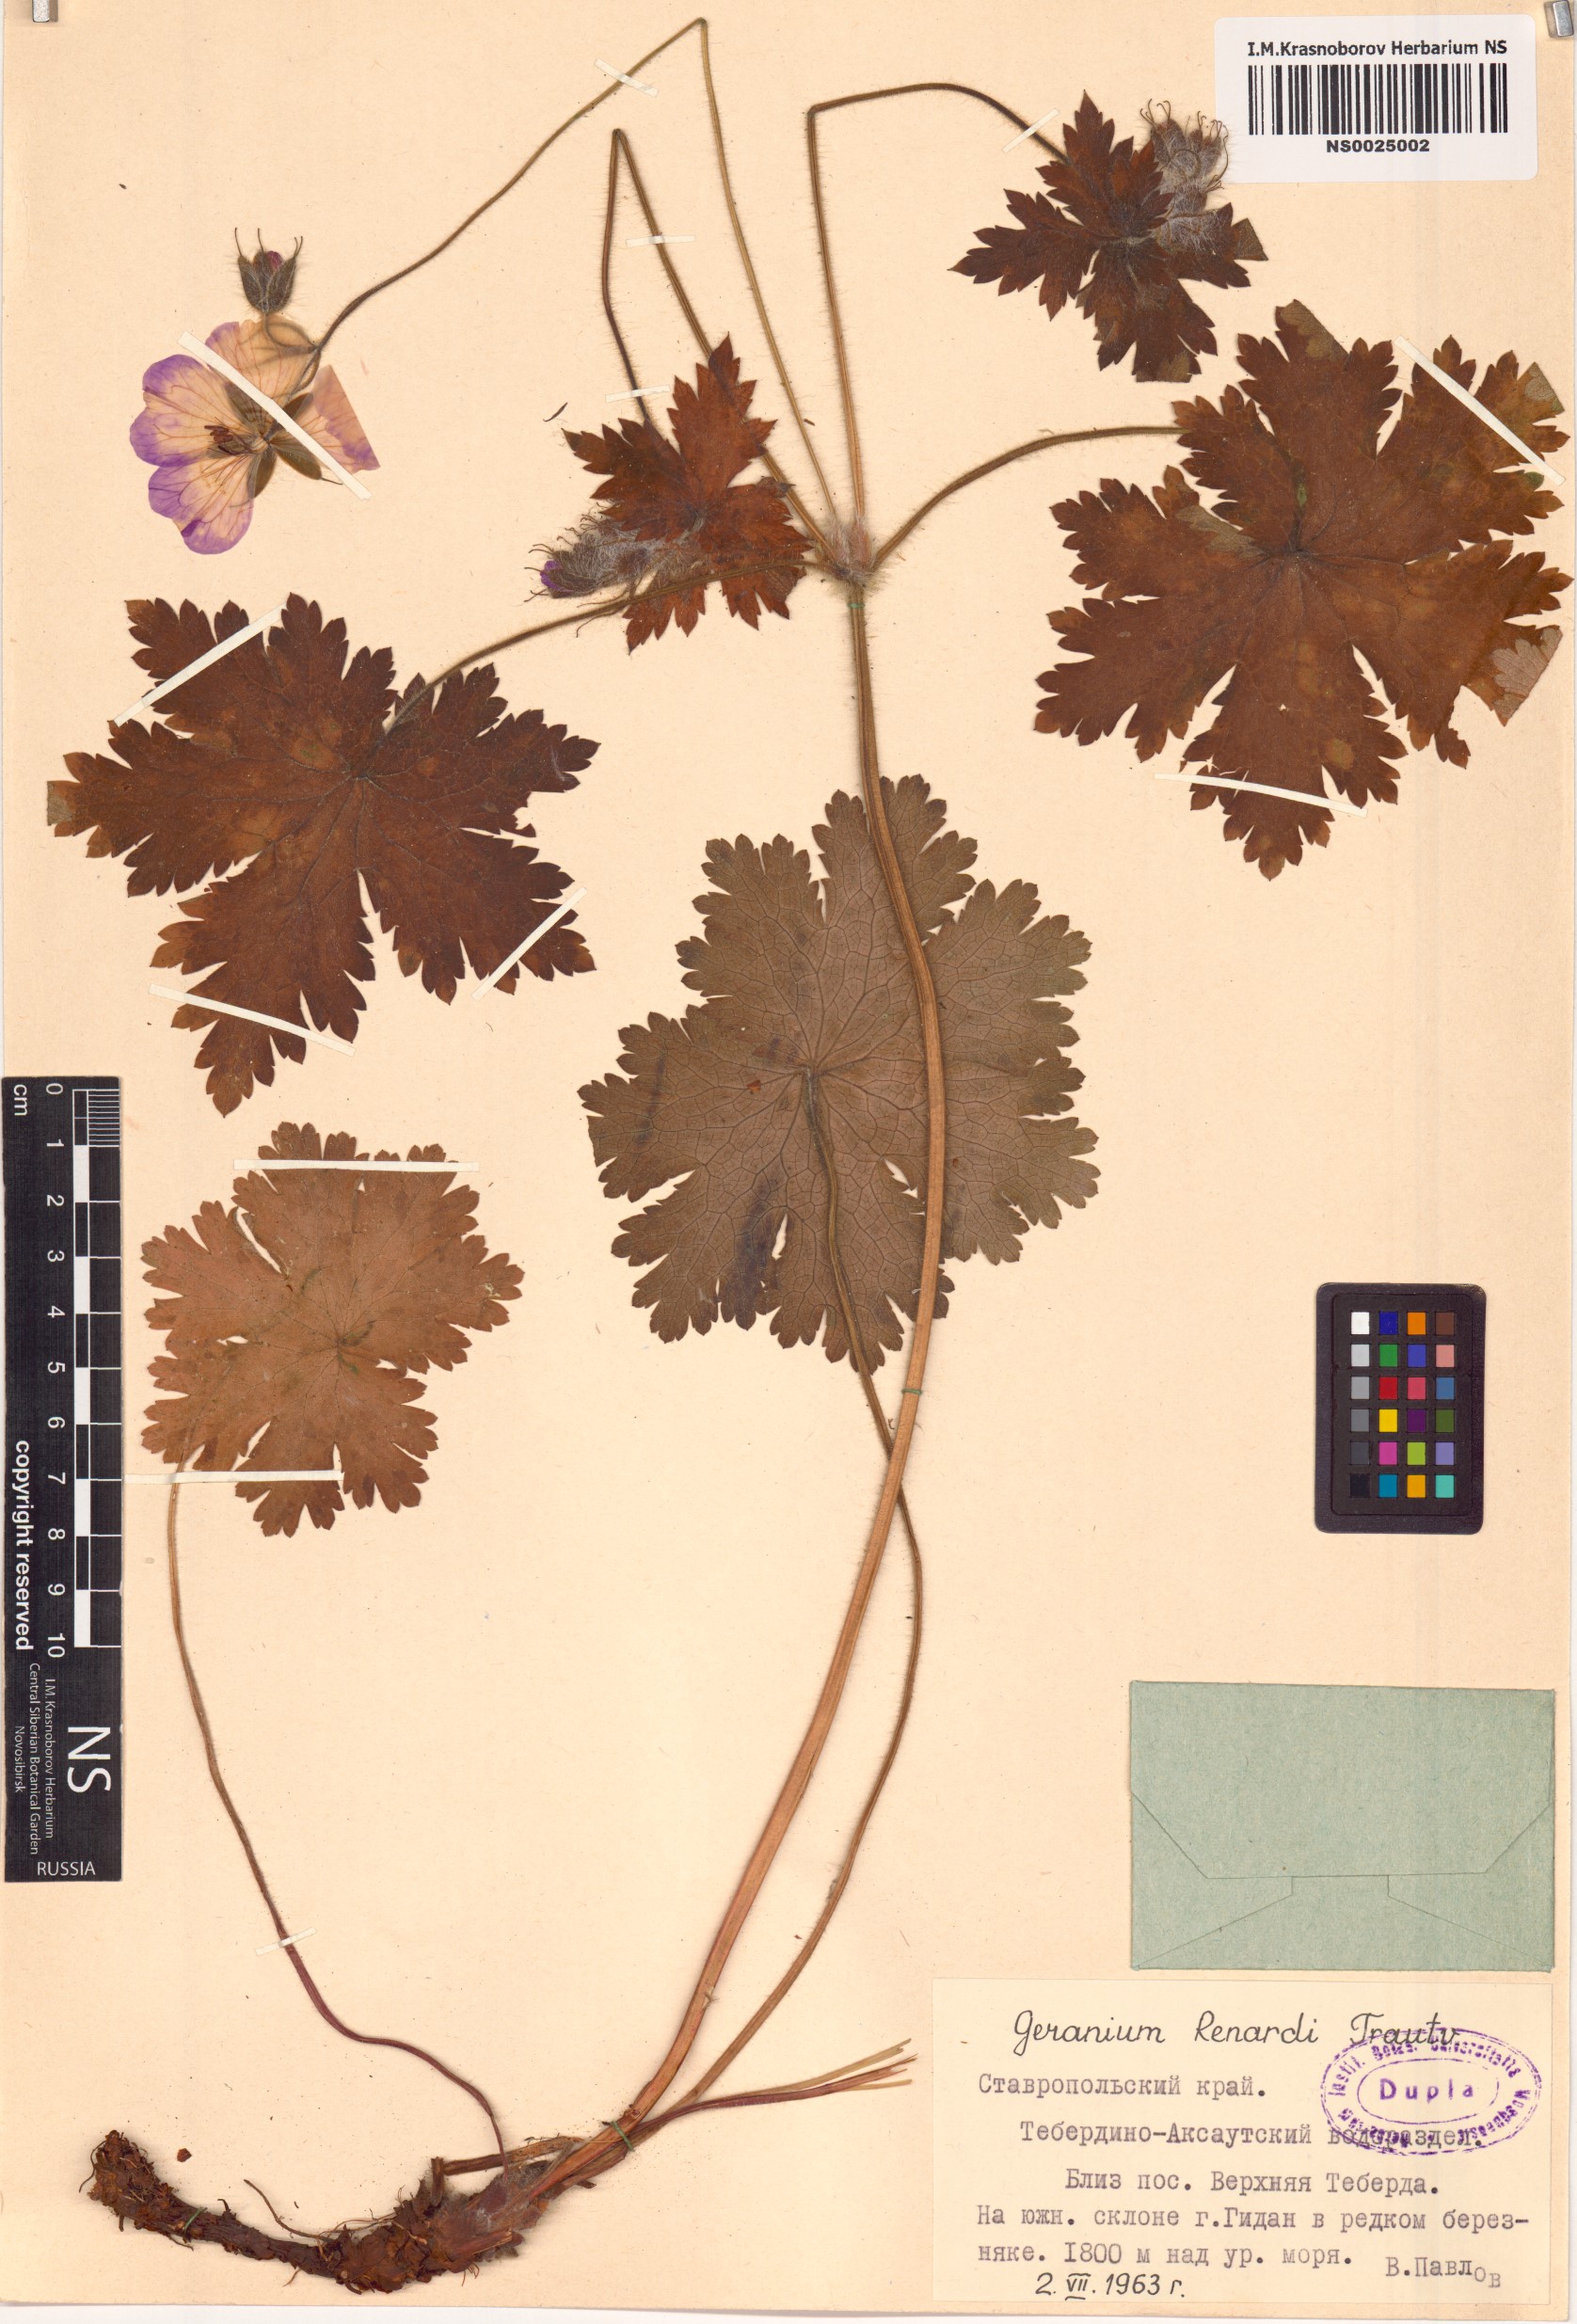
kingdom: Plantae
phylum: Tracheophyta
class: Magnoliopsida
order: Geraniales
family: Geraniaceae
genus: Geranium
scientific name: Geranium renardii
